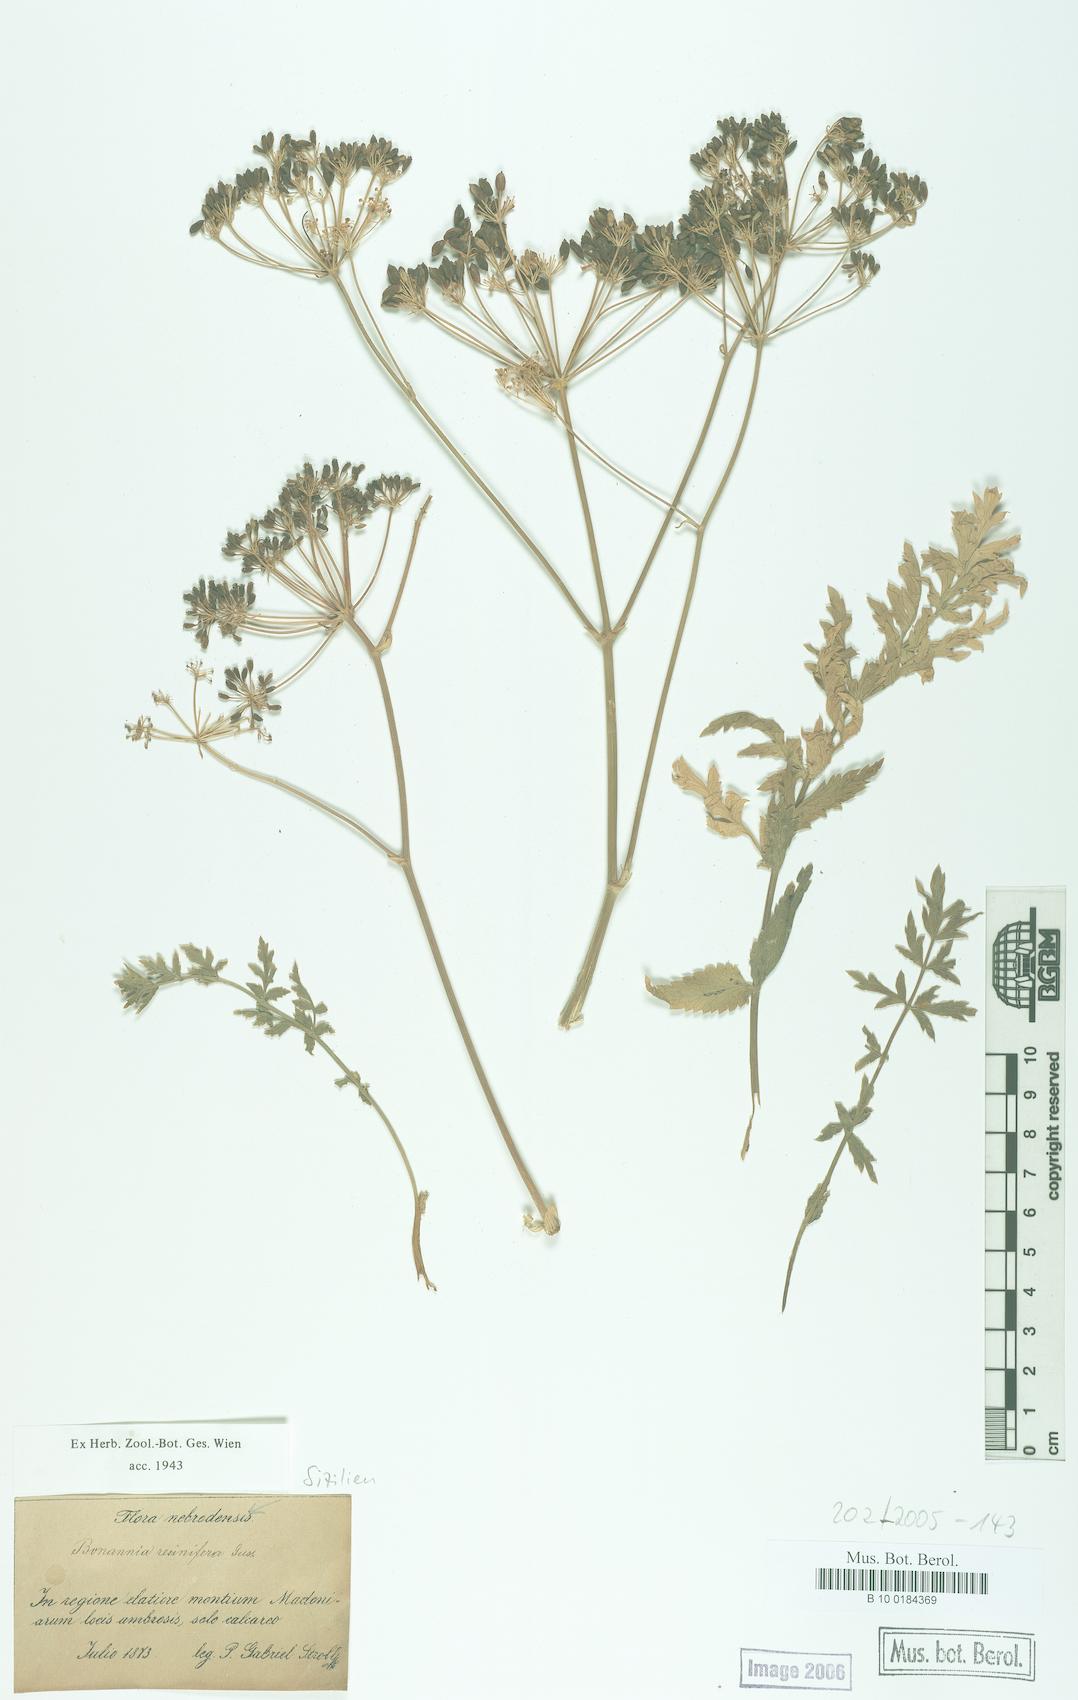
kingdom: Plantae
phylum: Tracheophyta
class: Magnoliopsida
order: Apiales
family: Apiaceae
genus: Bonannia
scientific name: Bonannia graeca
